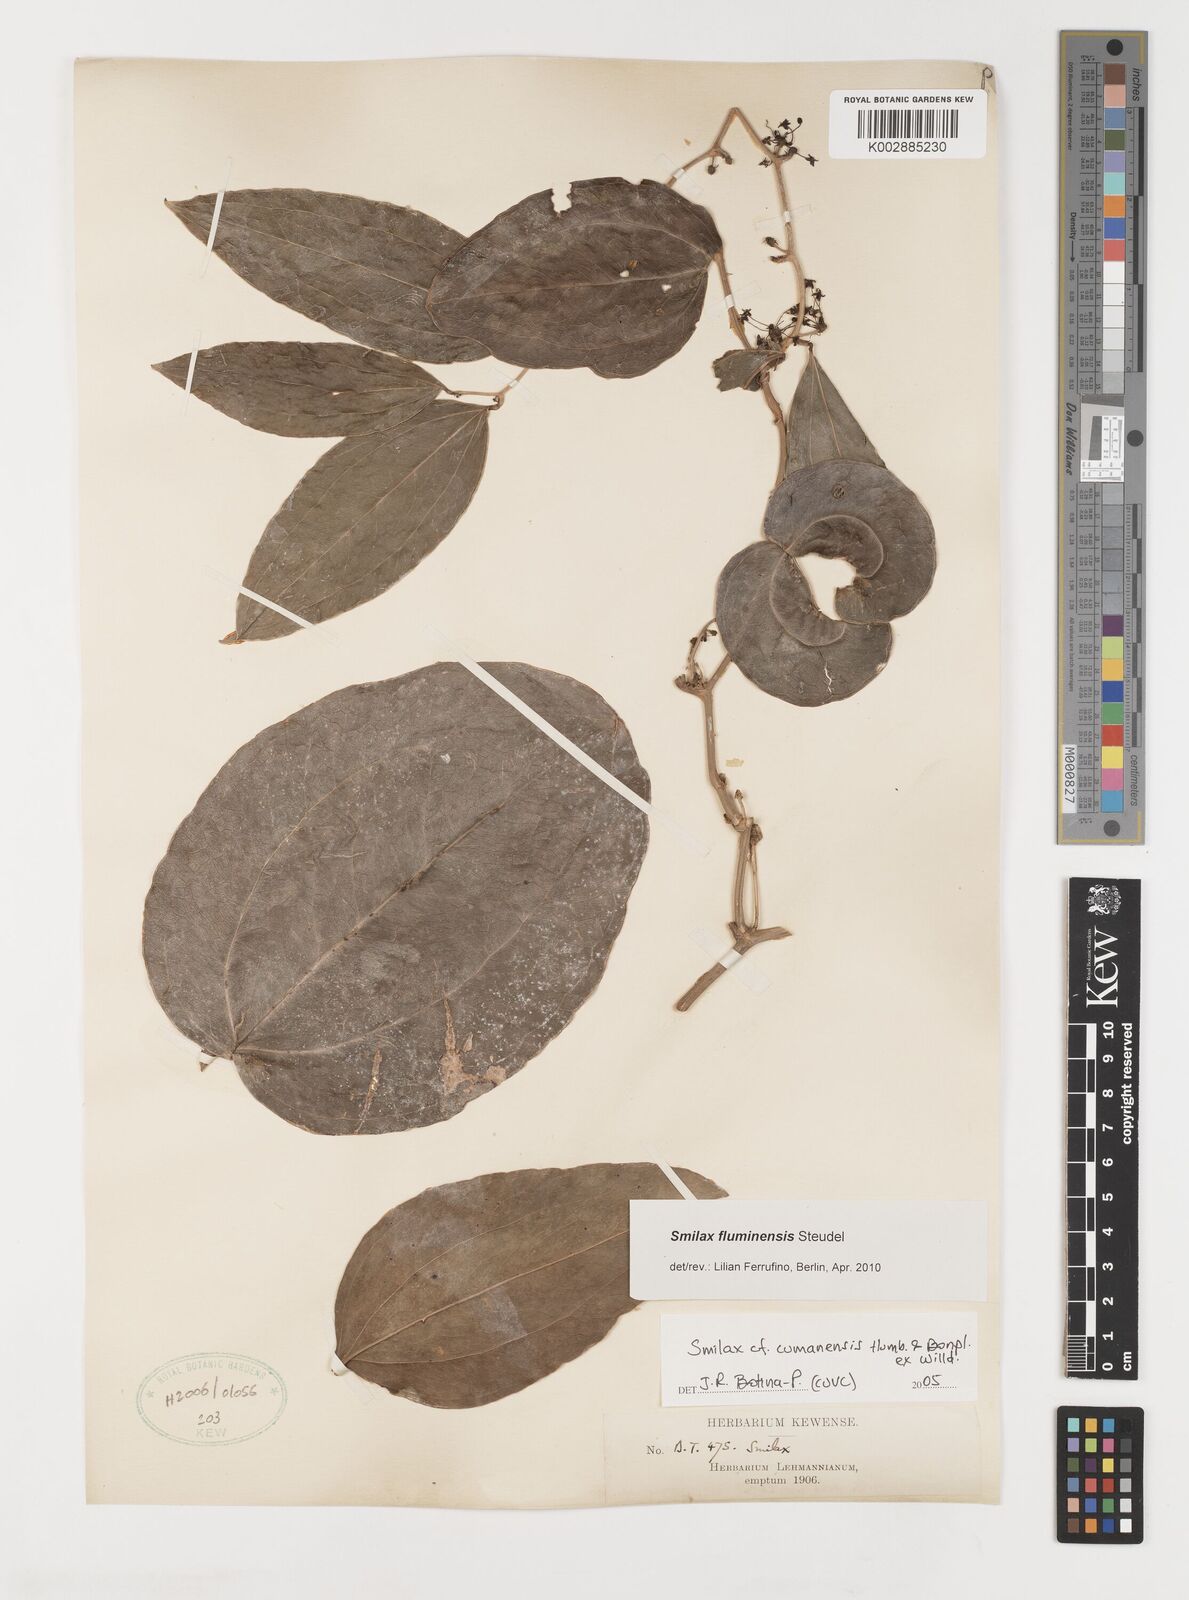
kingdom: Plantae
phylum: Tracheophyta
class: Liliopsida
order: Liliales
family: Smilacaceae
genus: Smilax
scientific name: Smilax domingensis
